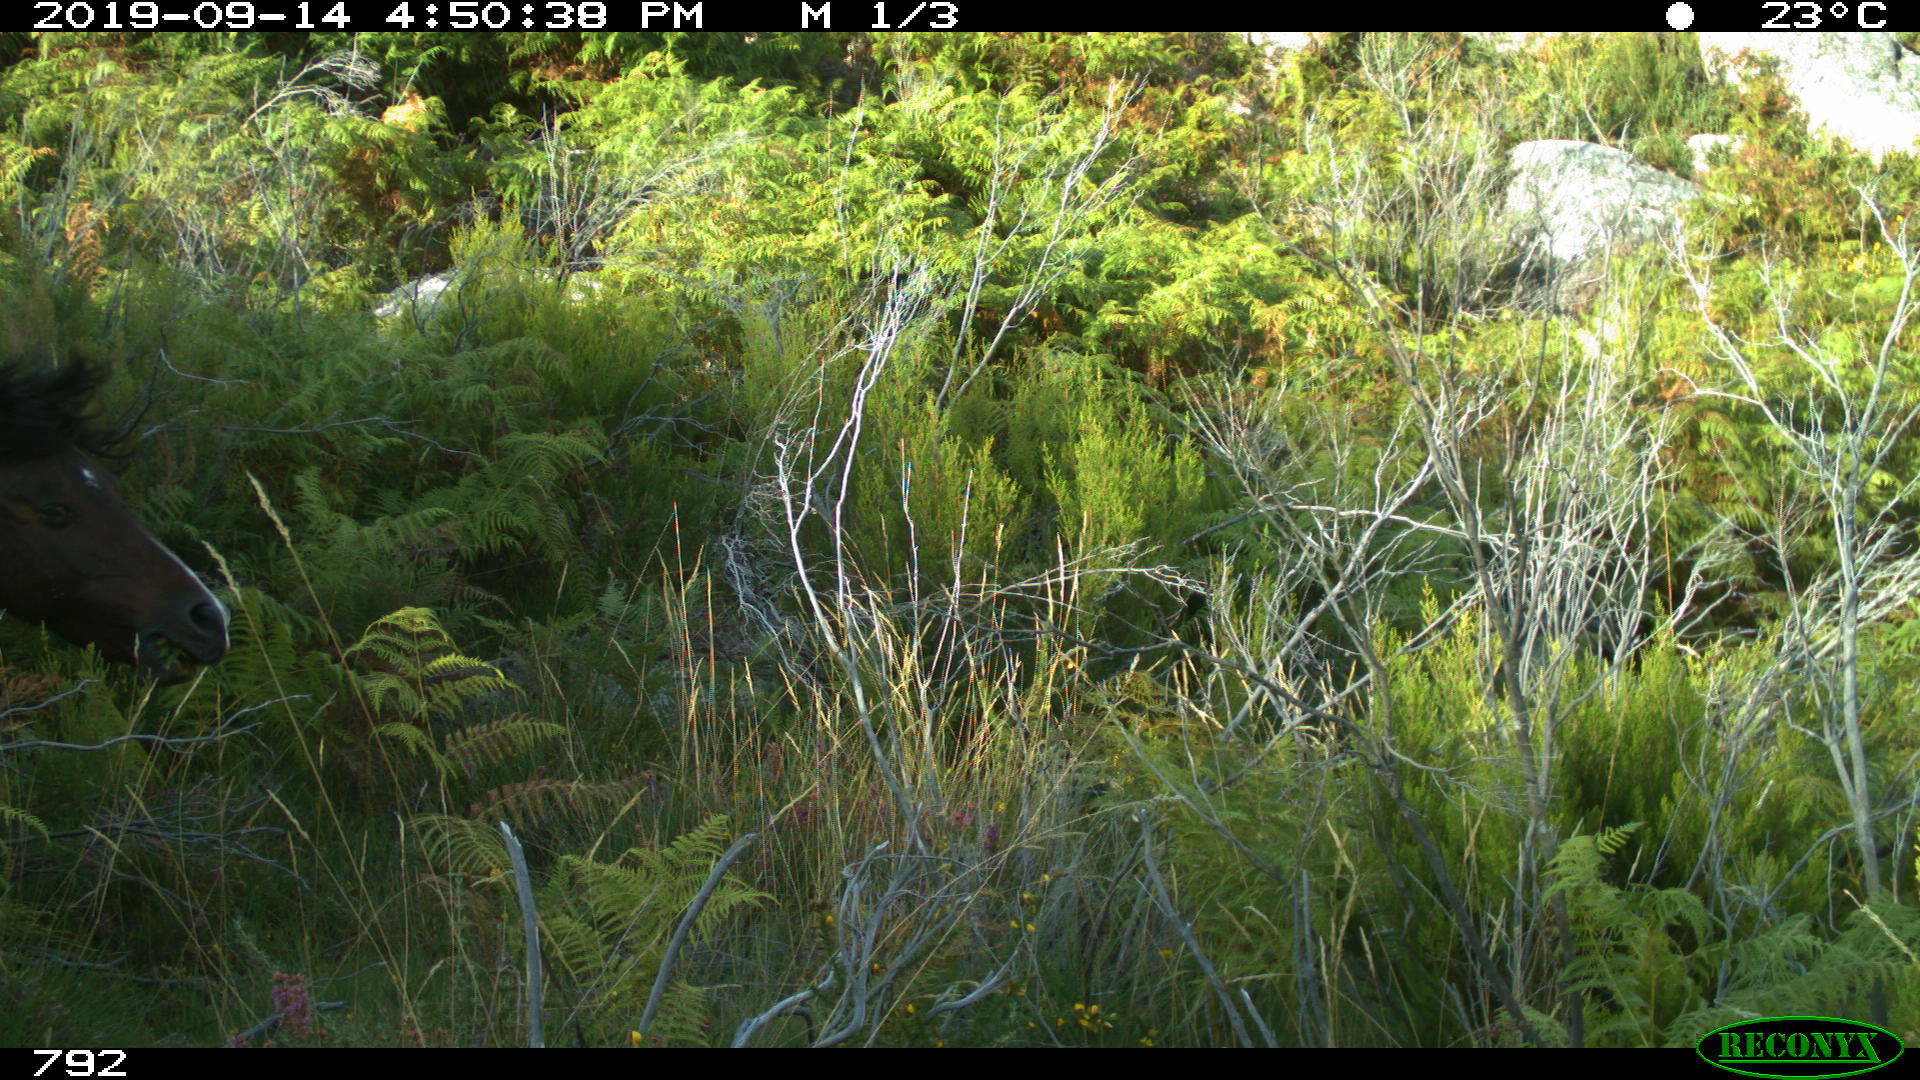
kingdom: Animalia
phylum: Chordata
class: Mammalia
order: Perissodactyla
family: Equidae
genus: Equus
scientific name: Equus caballus
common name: Horse
